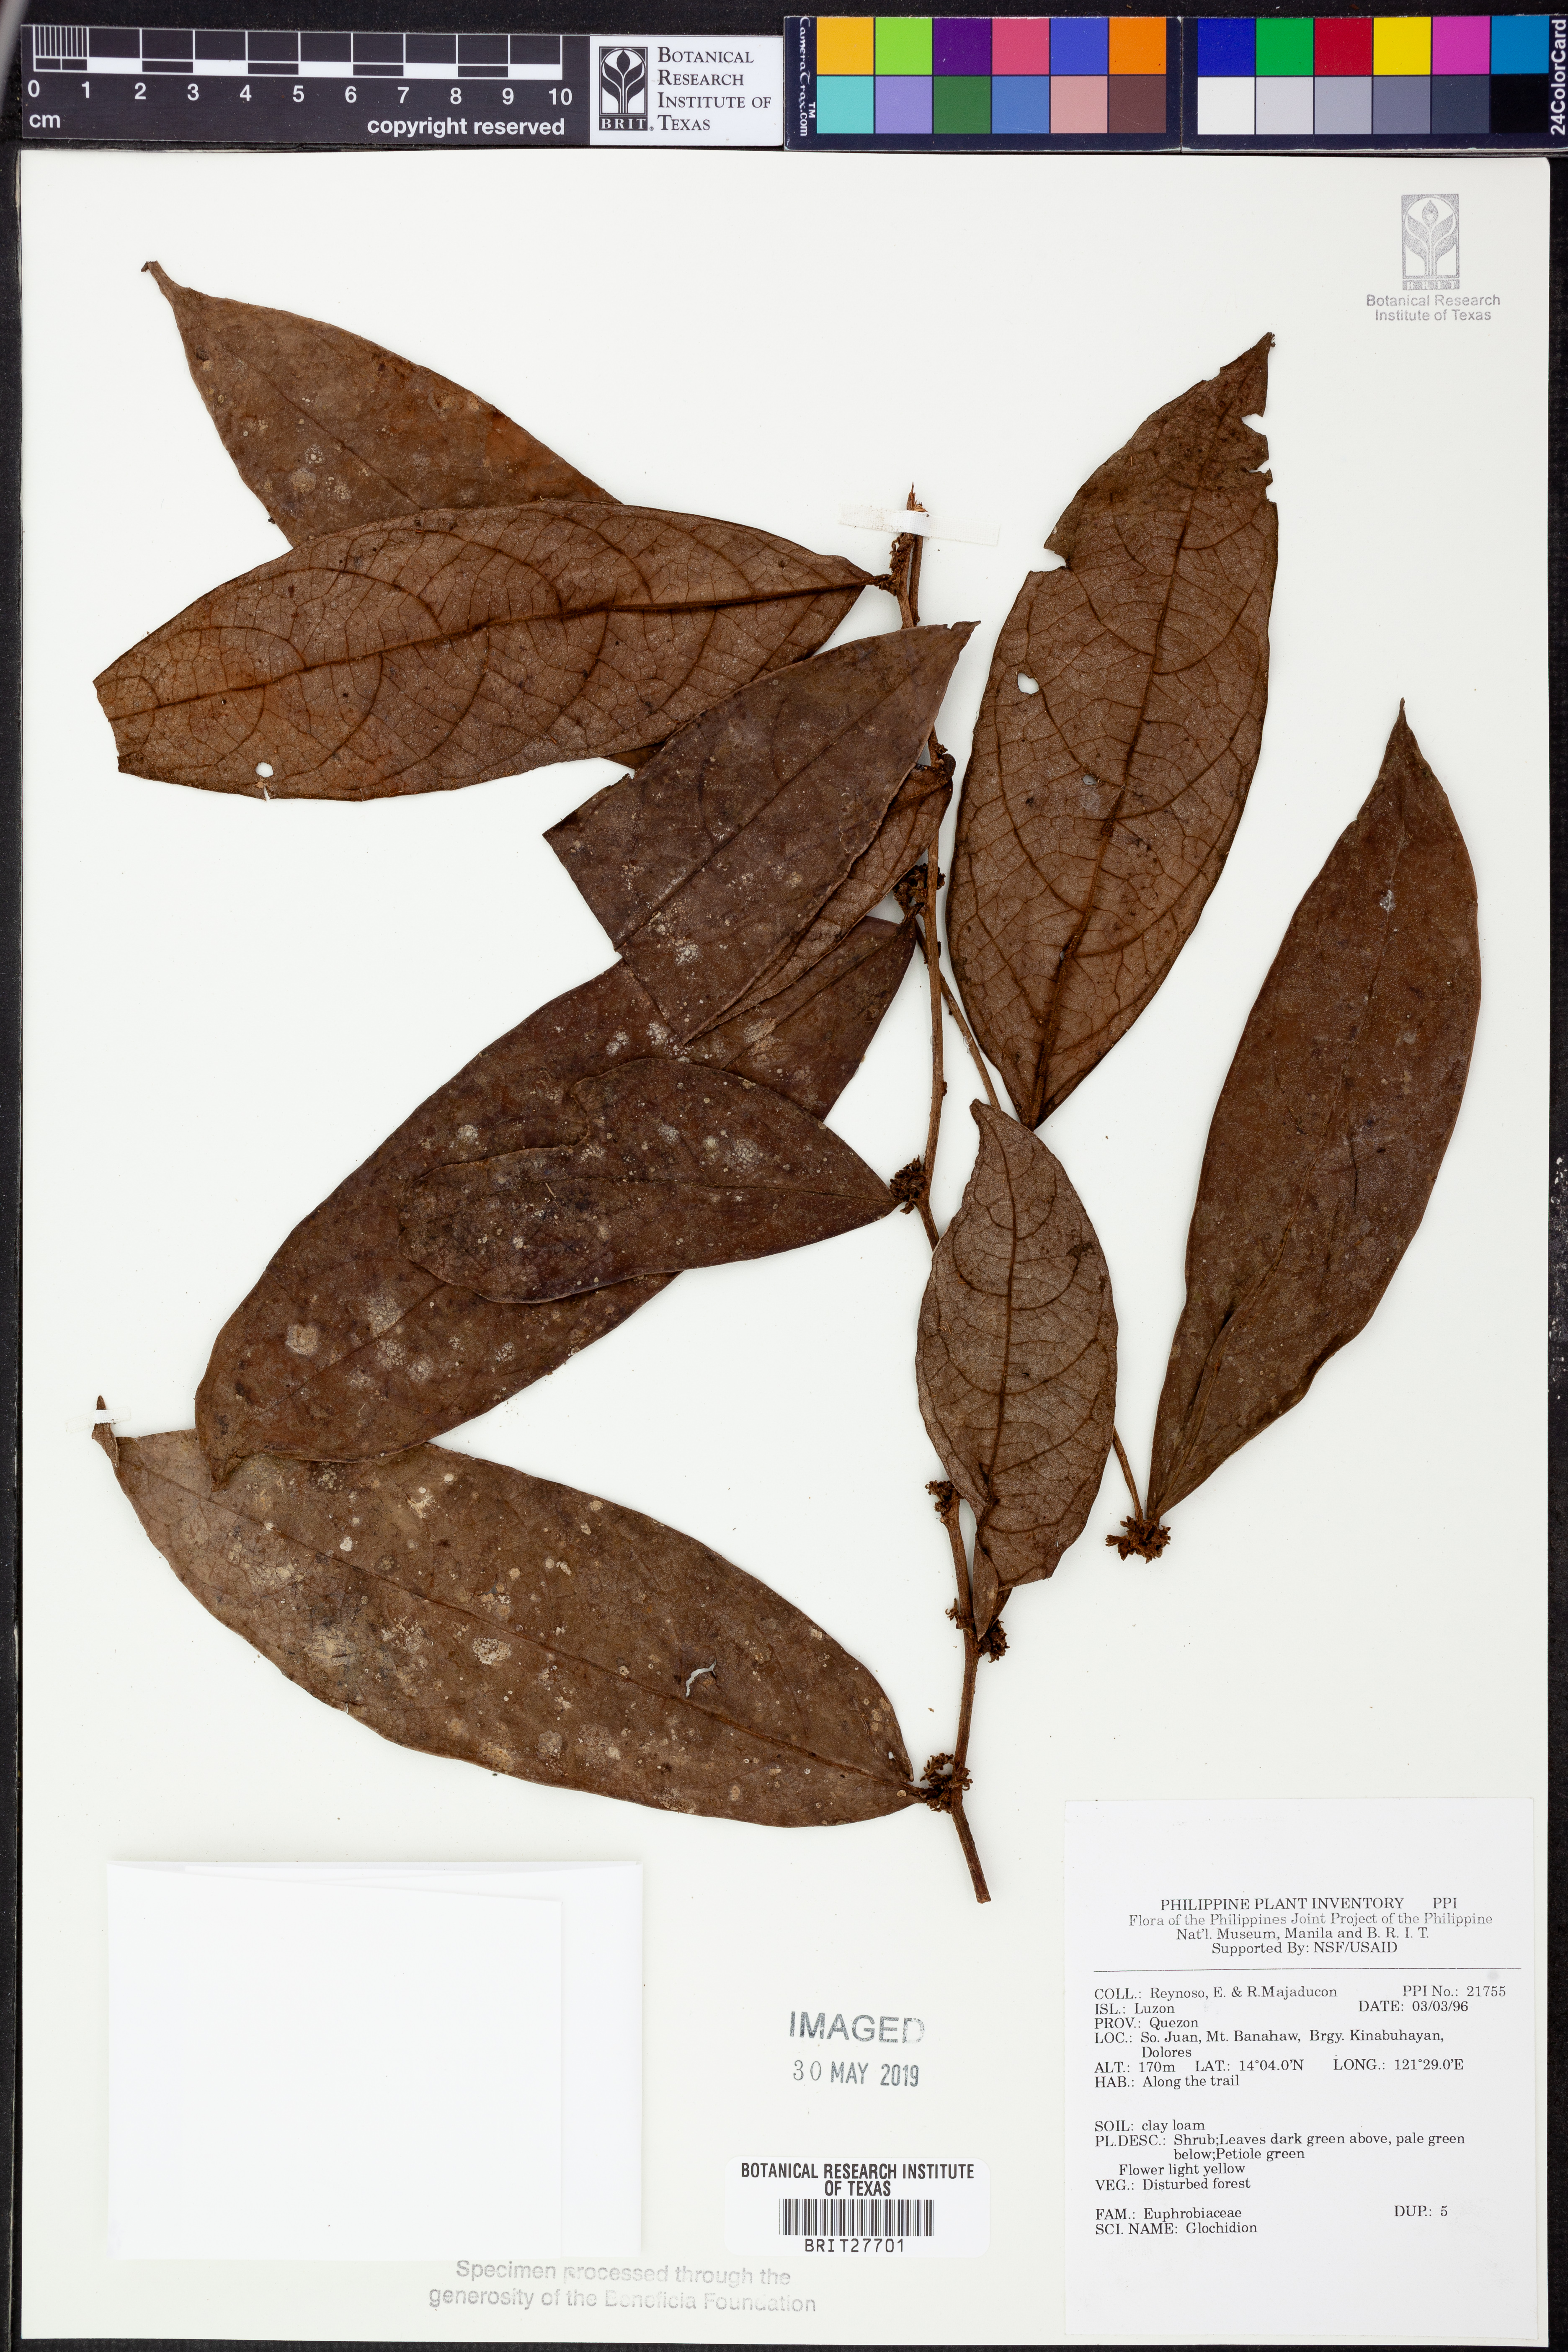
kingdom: Plantae
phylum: Tracheophyta
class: Magnoliopsida
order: Malpighiales
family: Phyllanthaceae
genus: Glochidion
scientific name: Glochidion
